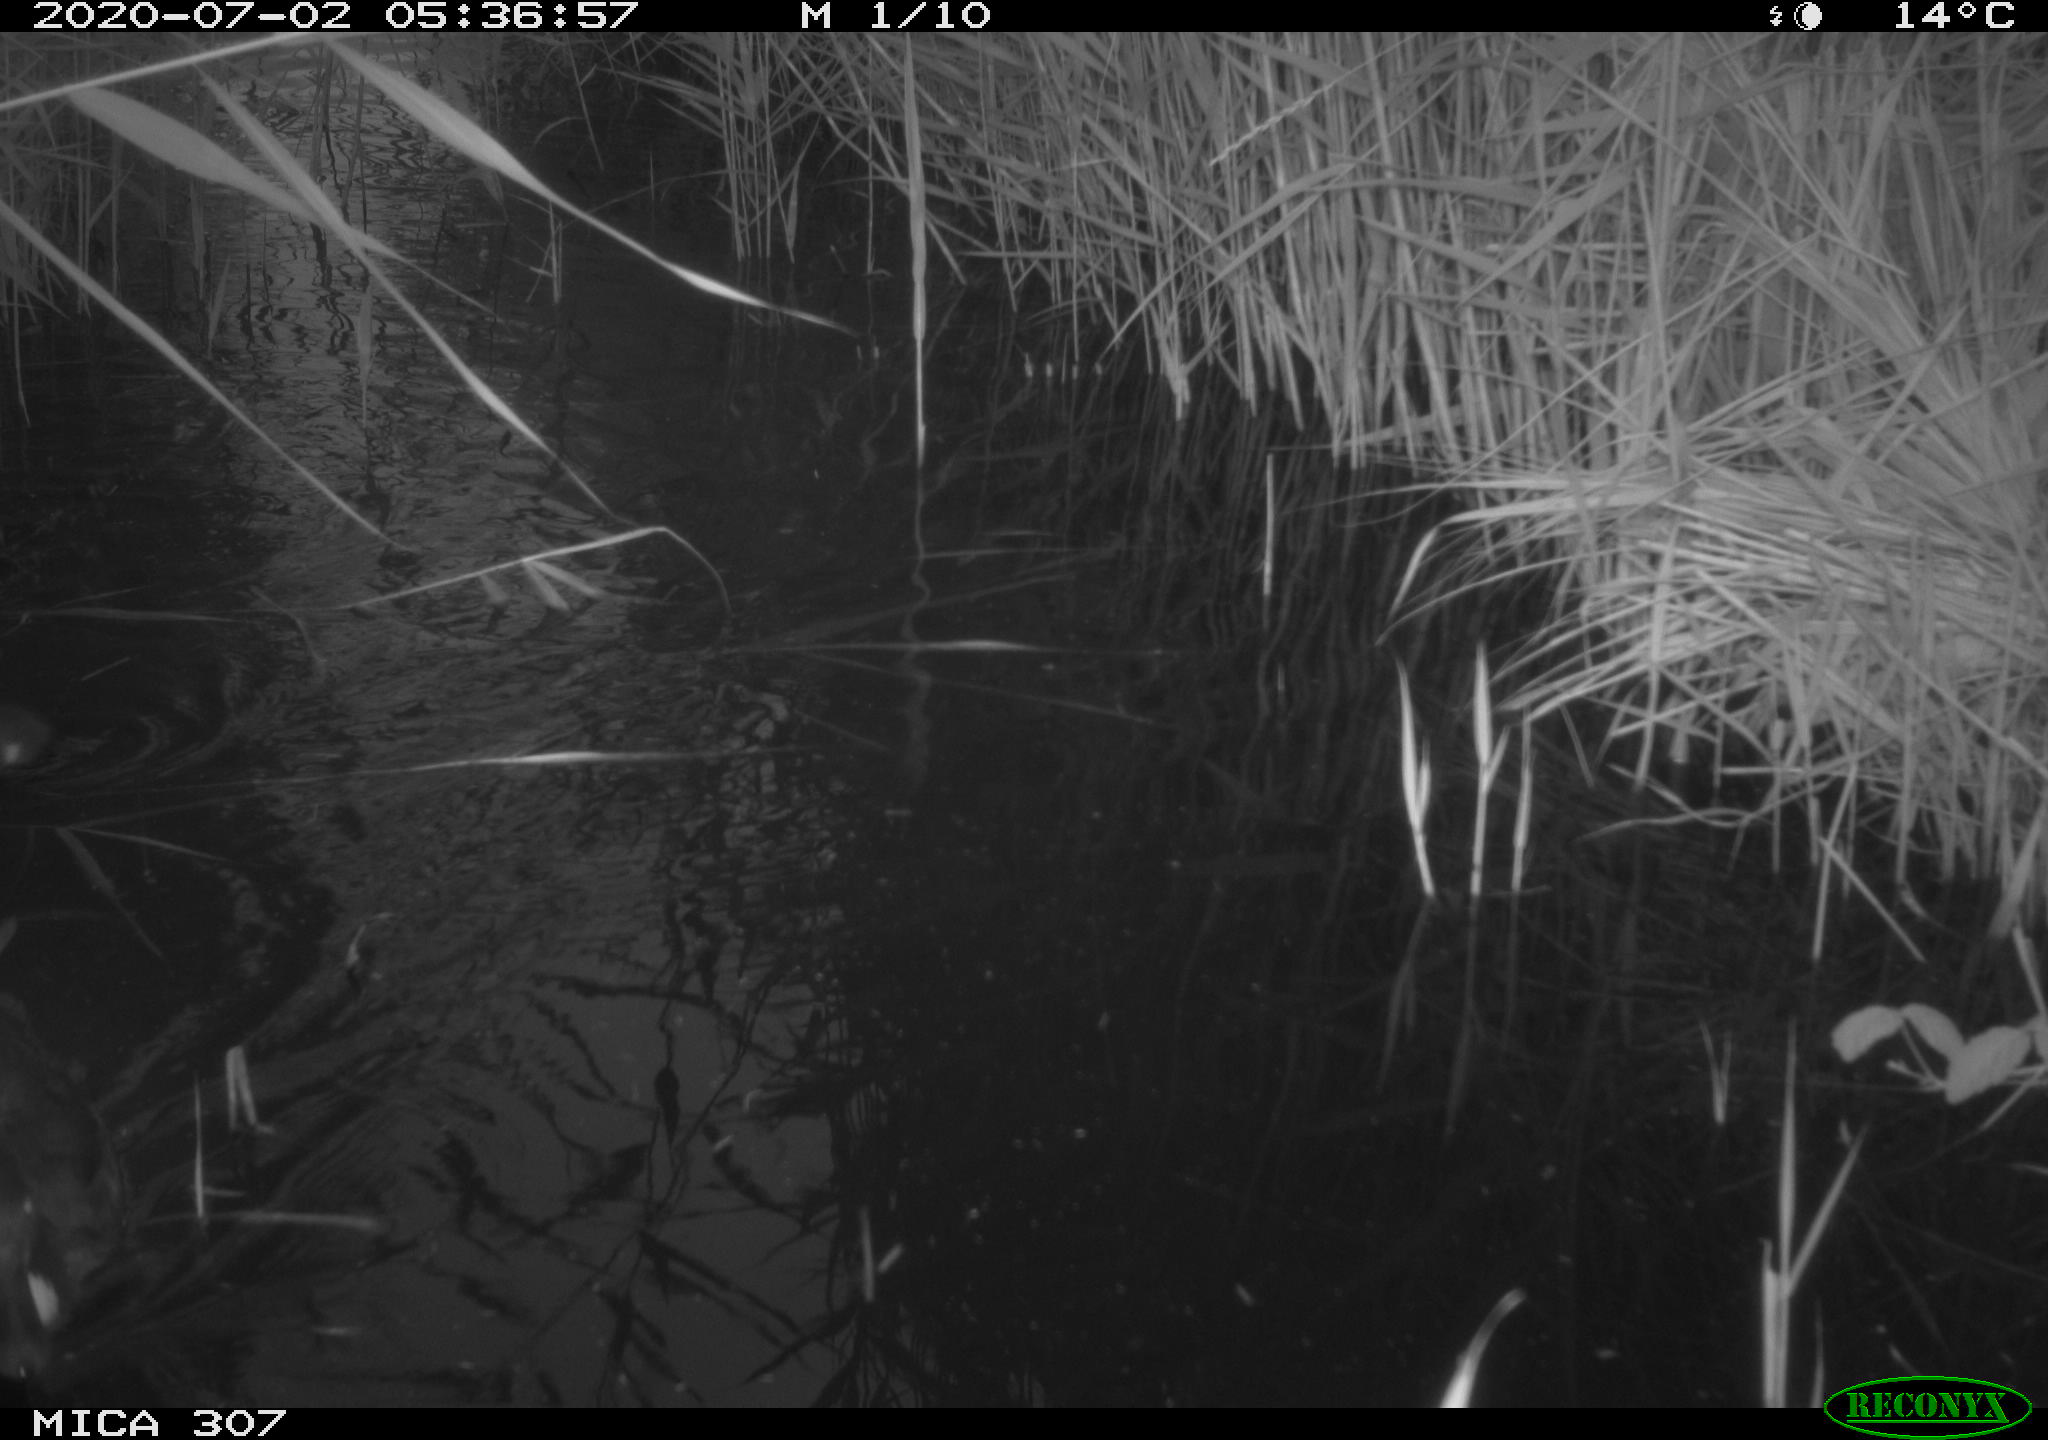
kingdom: Animalia
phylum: Chordata
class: Aves
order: Anseriformes
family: Anatidae
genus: Anas
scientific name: Anas platyrhynchos
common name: Mallard
